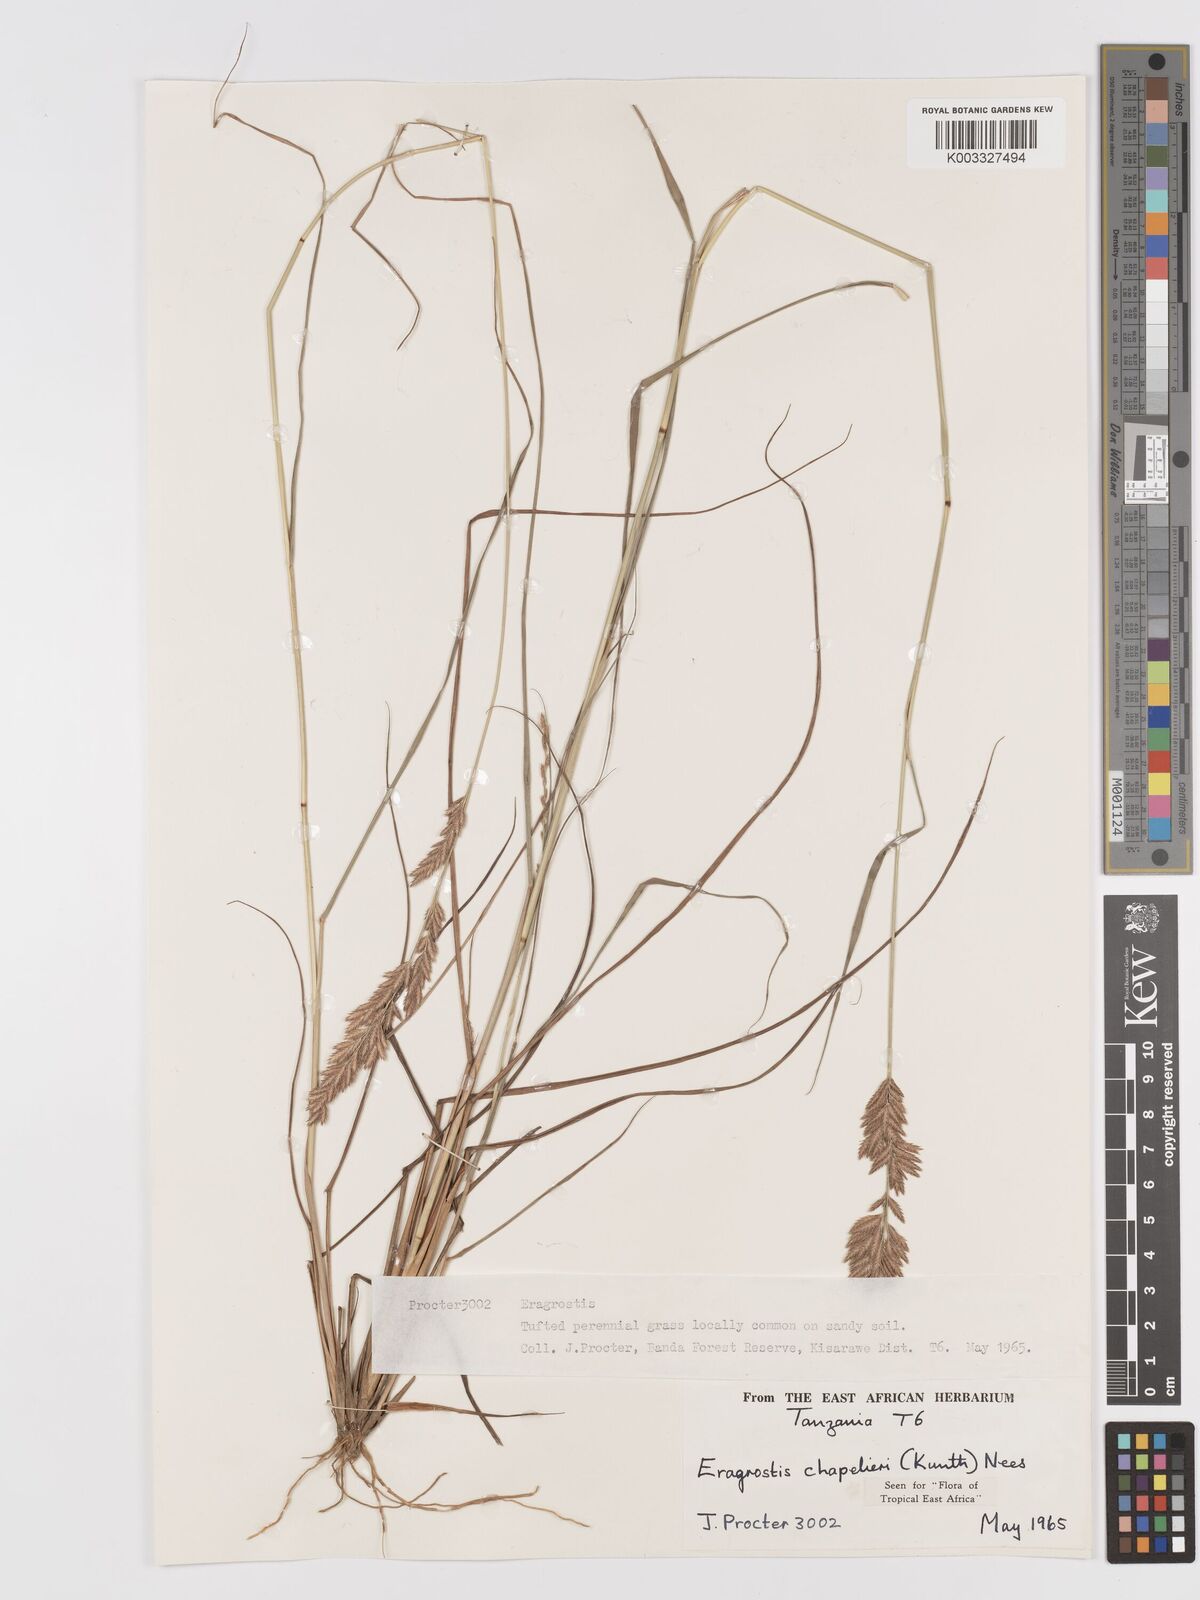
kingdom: Plantae
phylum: Tracheophyta
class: Liliopsida
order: Poales
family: Poaceae
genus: Eragrostis
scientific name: Eragrostis chapelieri
